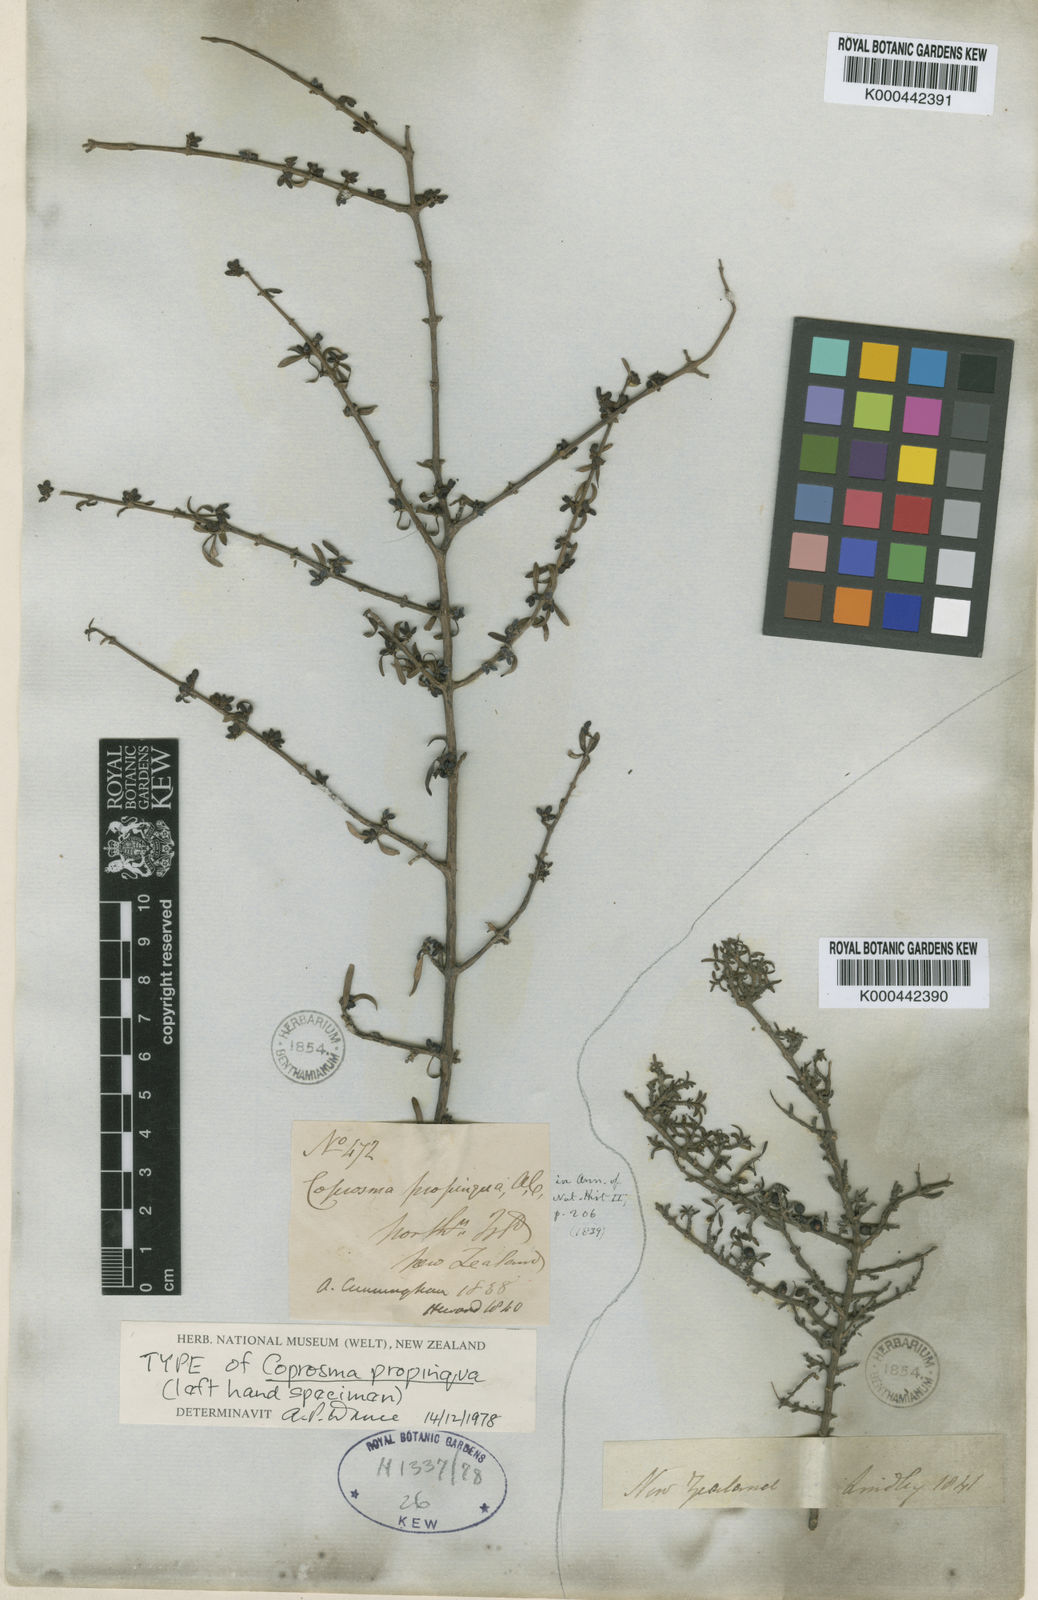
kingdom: Plantae
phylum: Tracheophyta
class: Magnoliopsida
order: Gentianales
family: Rubiaceae
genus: Coprosma
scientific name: Coprosma propinqua
